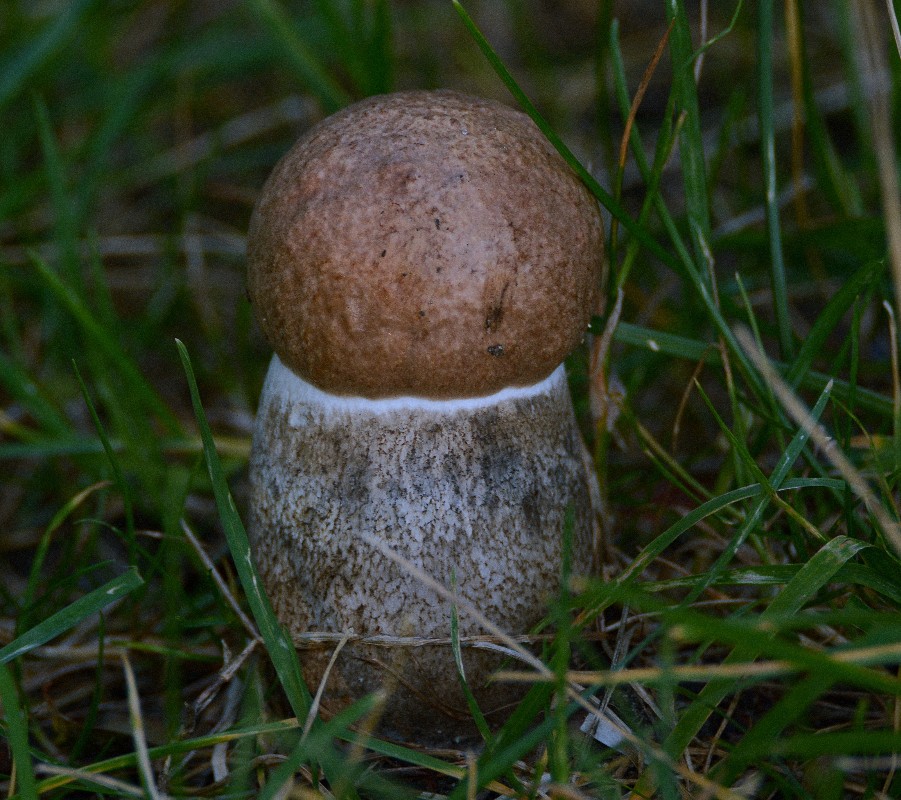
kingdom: Fungi
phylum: Basidiomycota
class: Agaricomycetes
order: Boletales
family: Boletaceae
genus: Leccinum
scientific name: Leccinum duriusculum
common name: poppel-skælrørhat
